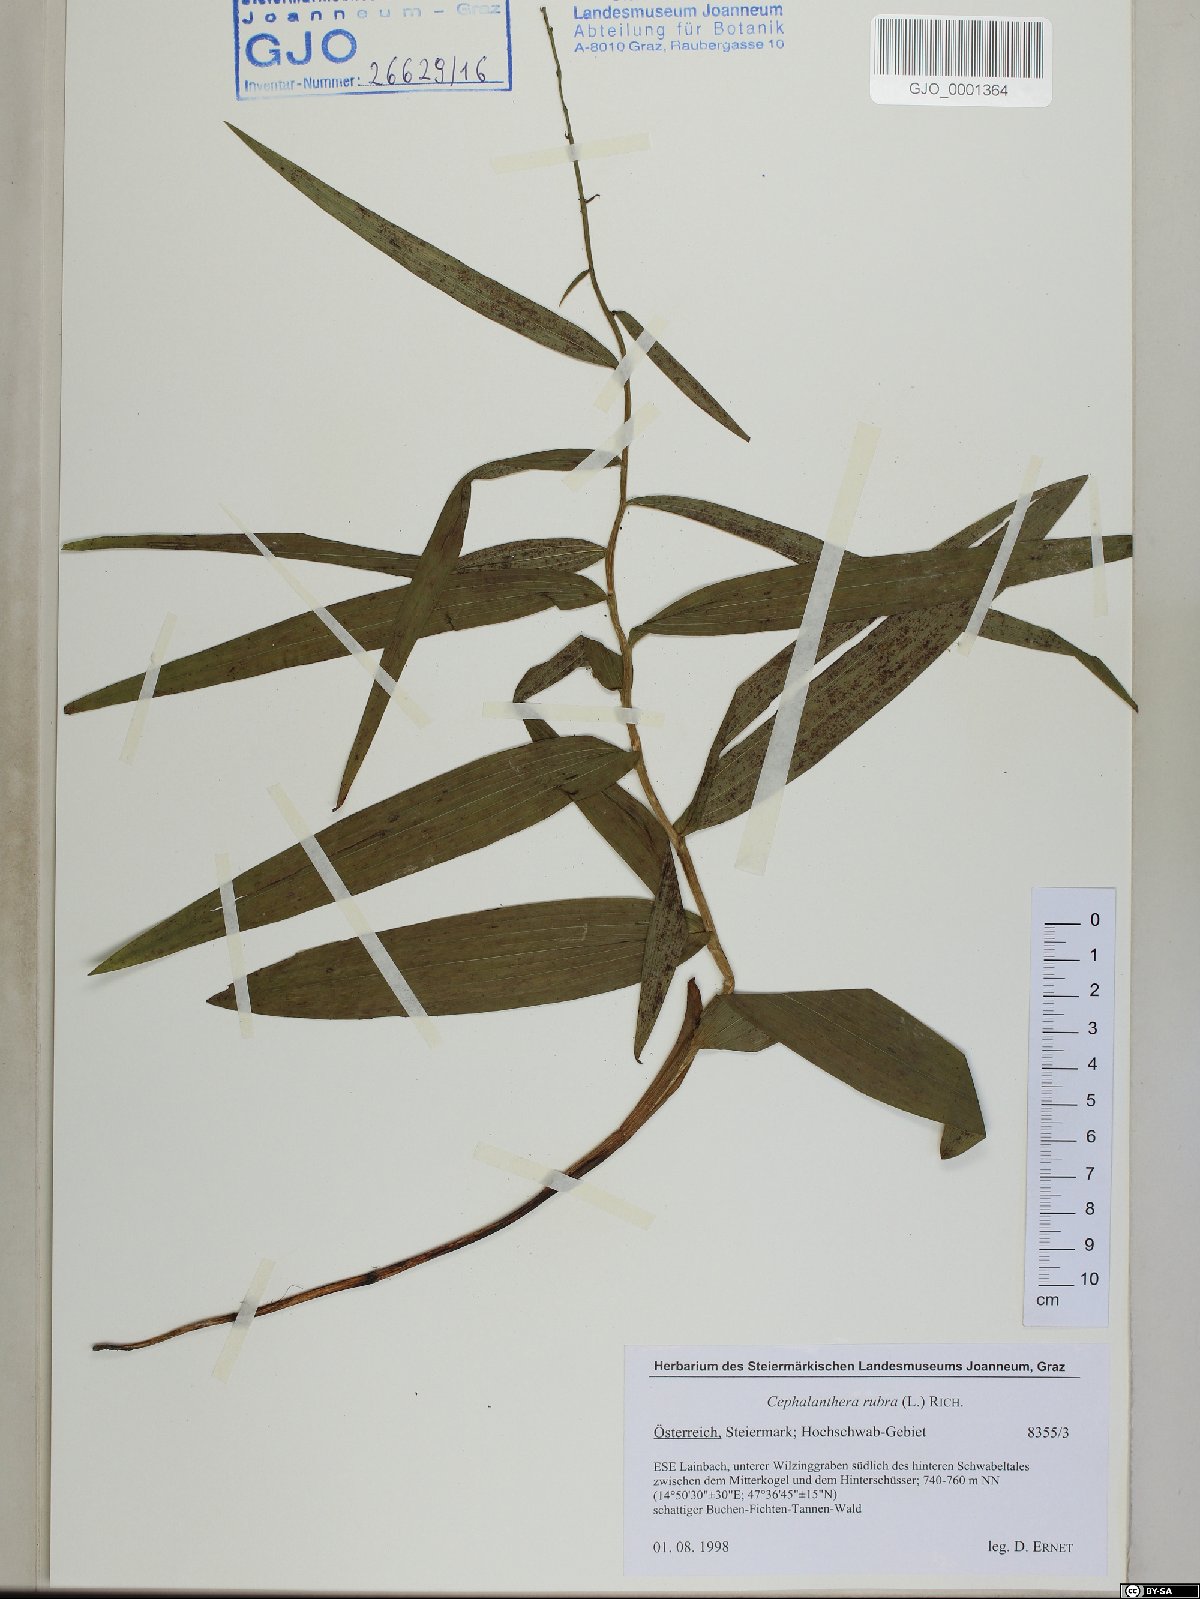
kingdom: Plantae
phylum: Tracheophyta
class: Liliopsida
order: Asparagales
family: Orchidaceae
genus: Cephalanthera
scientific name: Cephalanthera rubra
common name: Red helleborine
